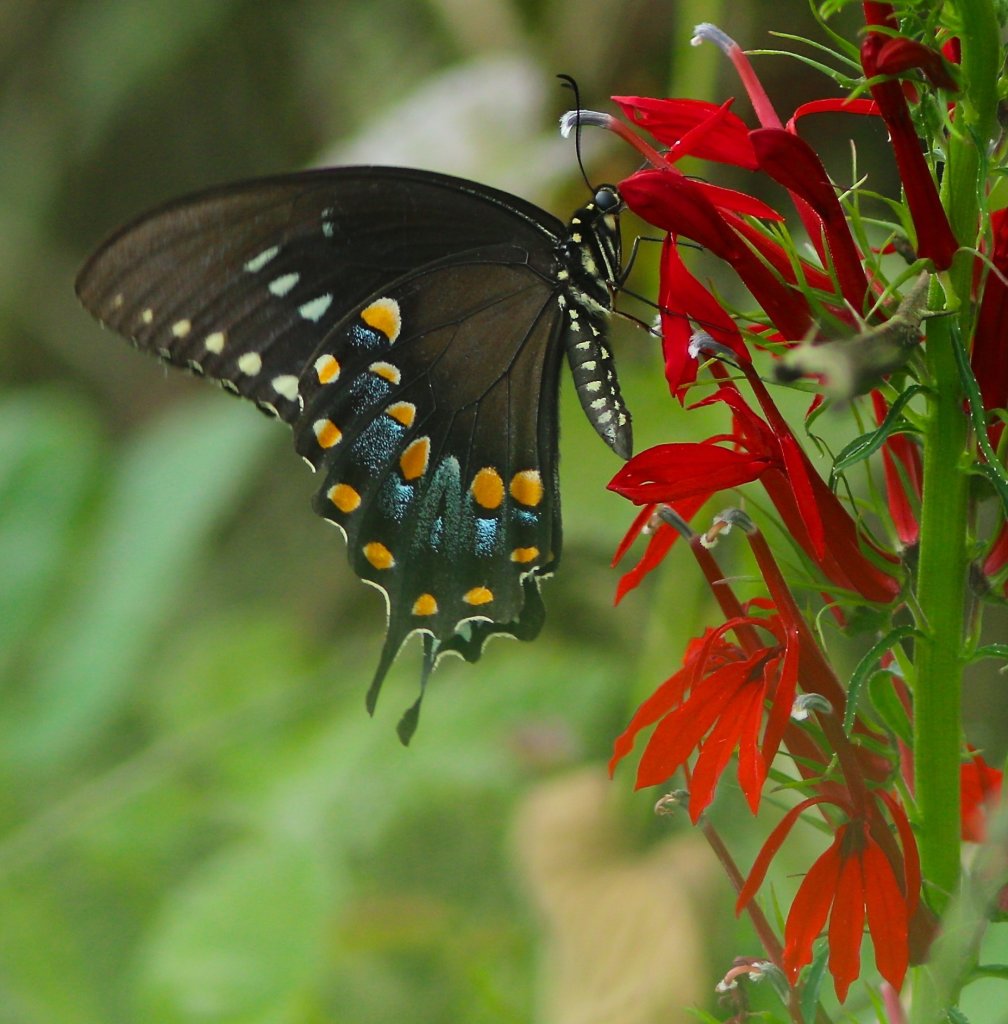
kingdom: Animalia
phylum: Arthropoda
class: Insecta
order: Lepidoptera
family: Papilionidae
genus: Pterourus
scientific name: Pterourus troilus
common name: Spicebush Swallowtail
